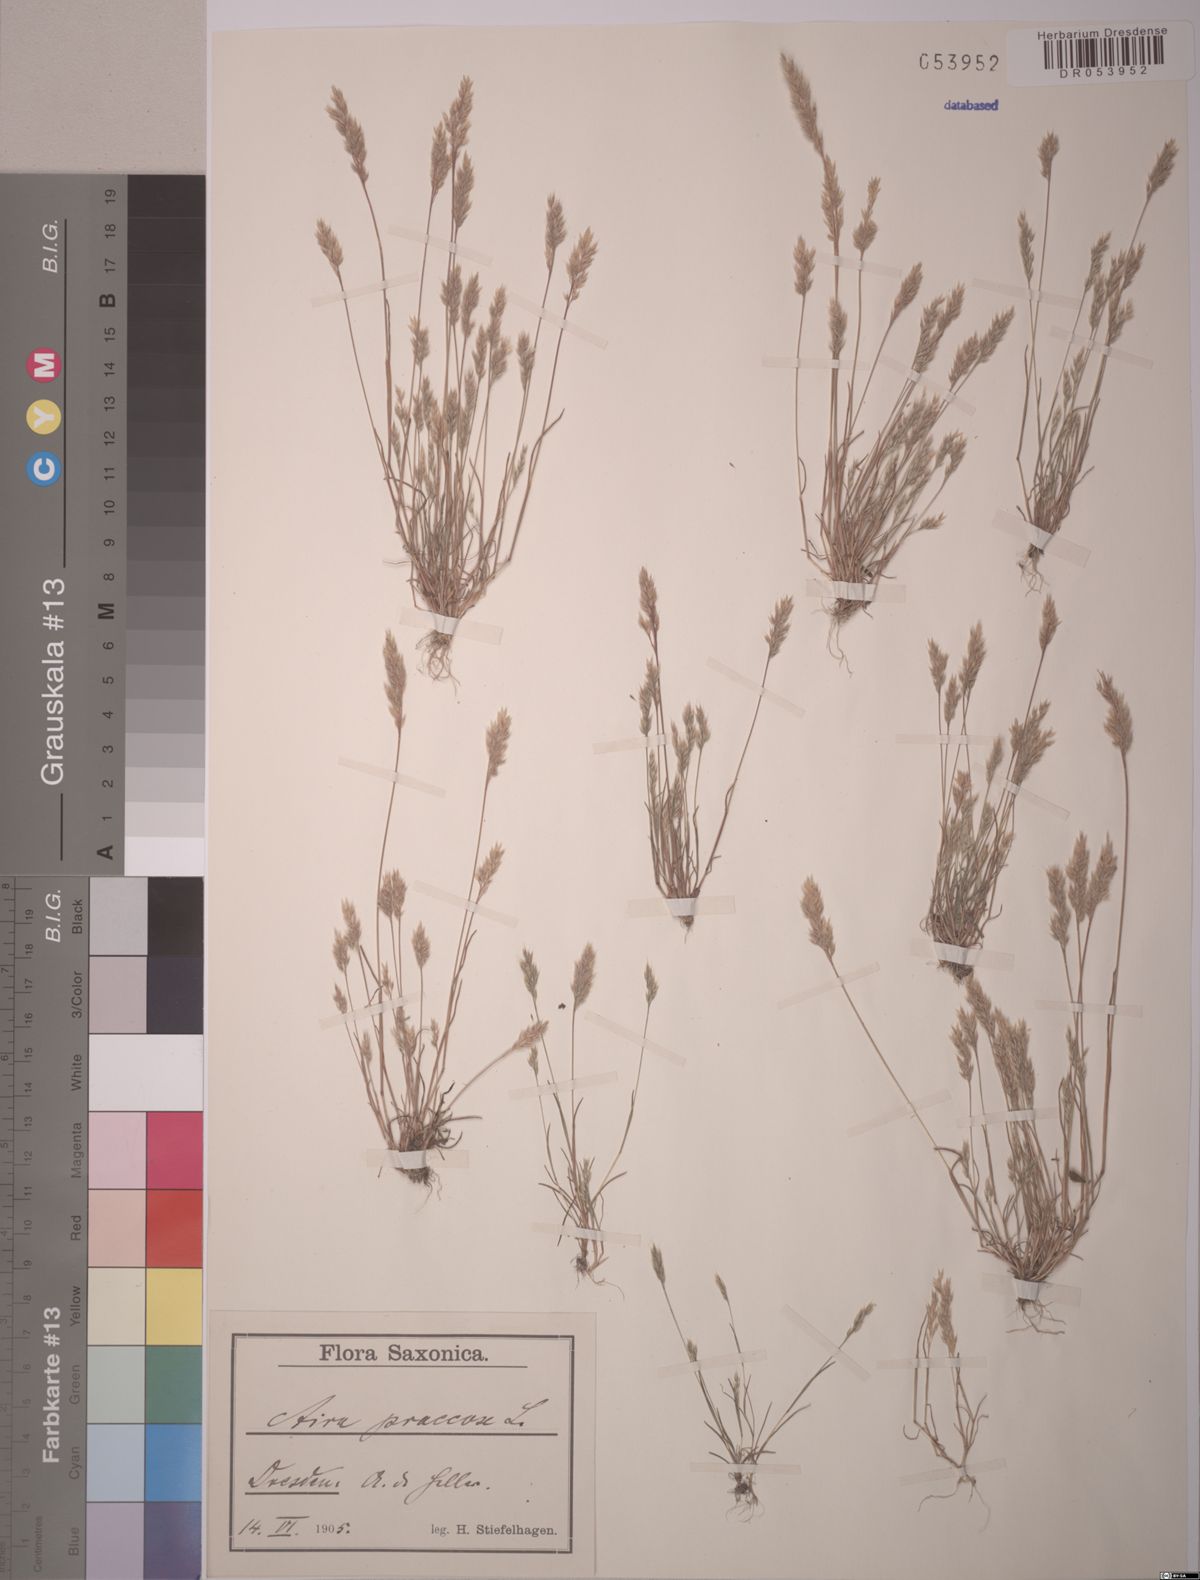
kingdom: Plantae
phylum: Tracheophyta
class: Liliopsida
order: Poales
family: Poaceae
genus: Aira
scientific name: Aira praecox
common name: Early hair-grass
